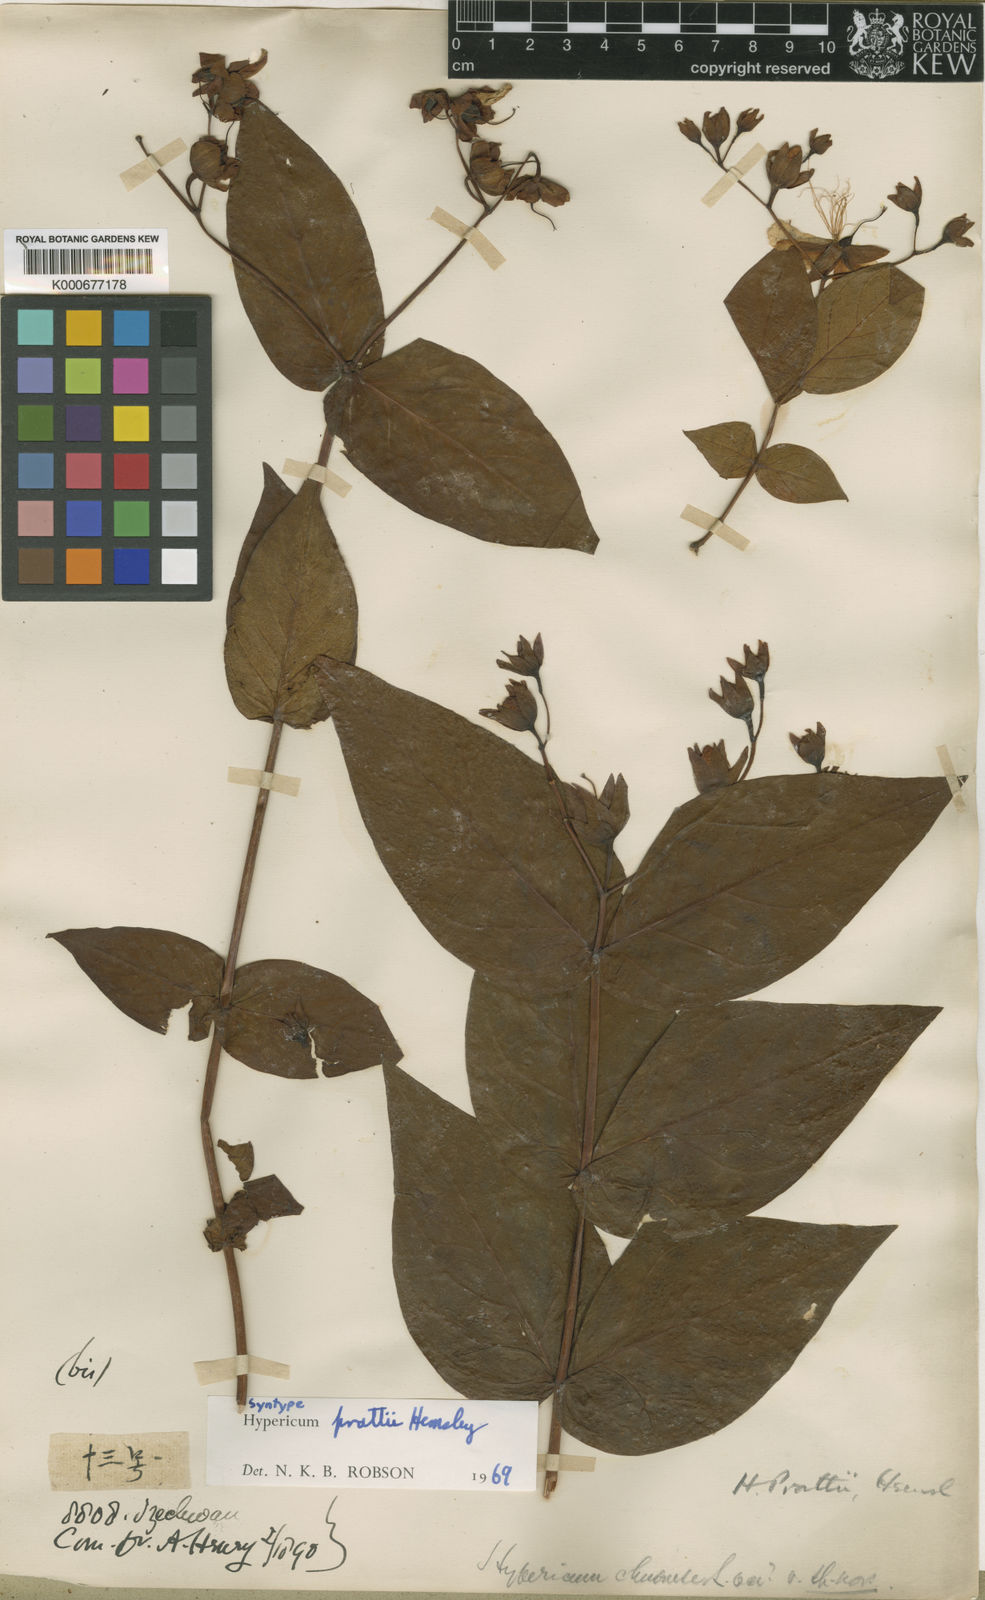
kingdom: Plantae
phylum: Tracheophyta
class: Magnoliopsida
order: Malpighiales
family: Hypericaceae
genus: Hypericum
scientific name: Hypericum prattii
